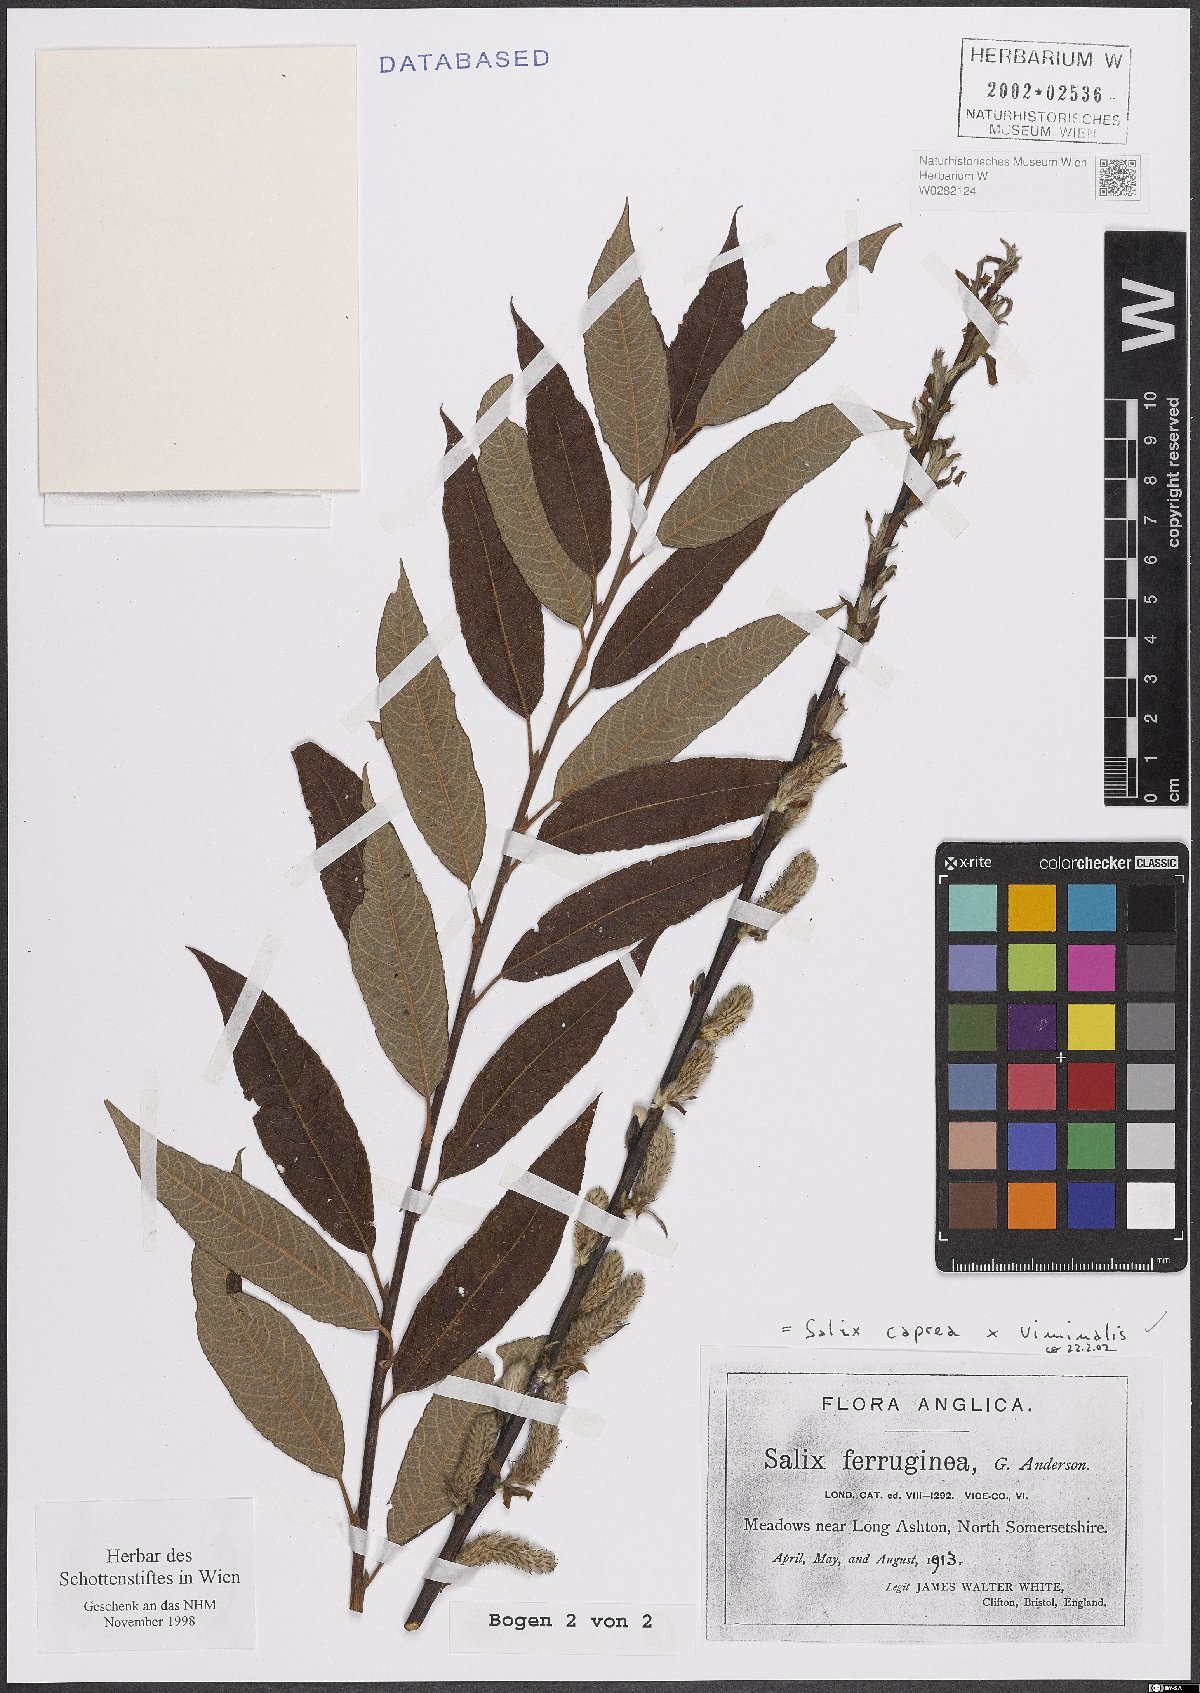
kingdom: Plantae
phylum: Tracheophyta
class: Magnoliopsida
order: Malpighiales
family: Salicaceae
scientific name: Salicaceae
